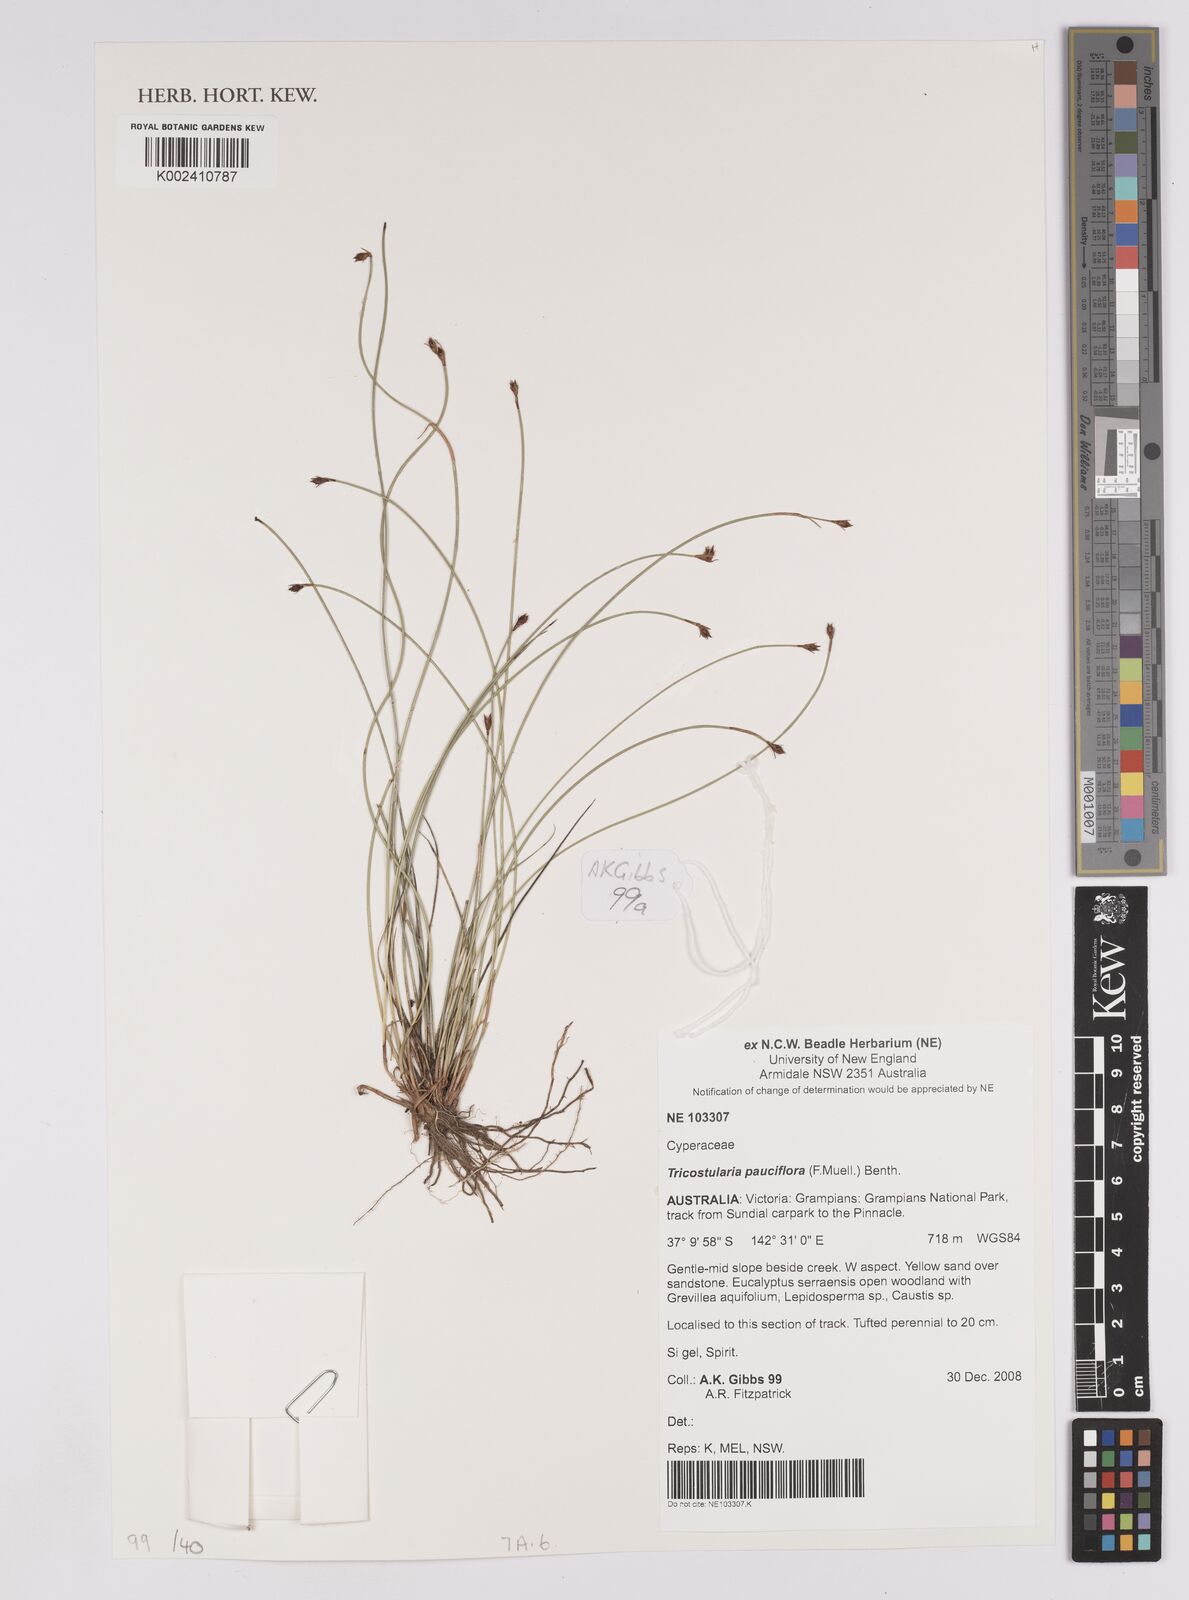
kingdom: Plantae
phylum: Tracheophyta
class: Liliopsida
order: Poales
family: Cyperaceae
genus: Tricostularia
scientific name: Tricostularia pauciflora
